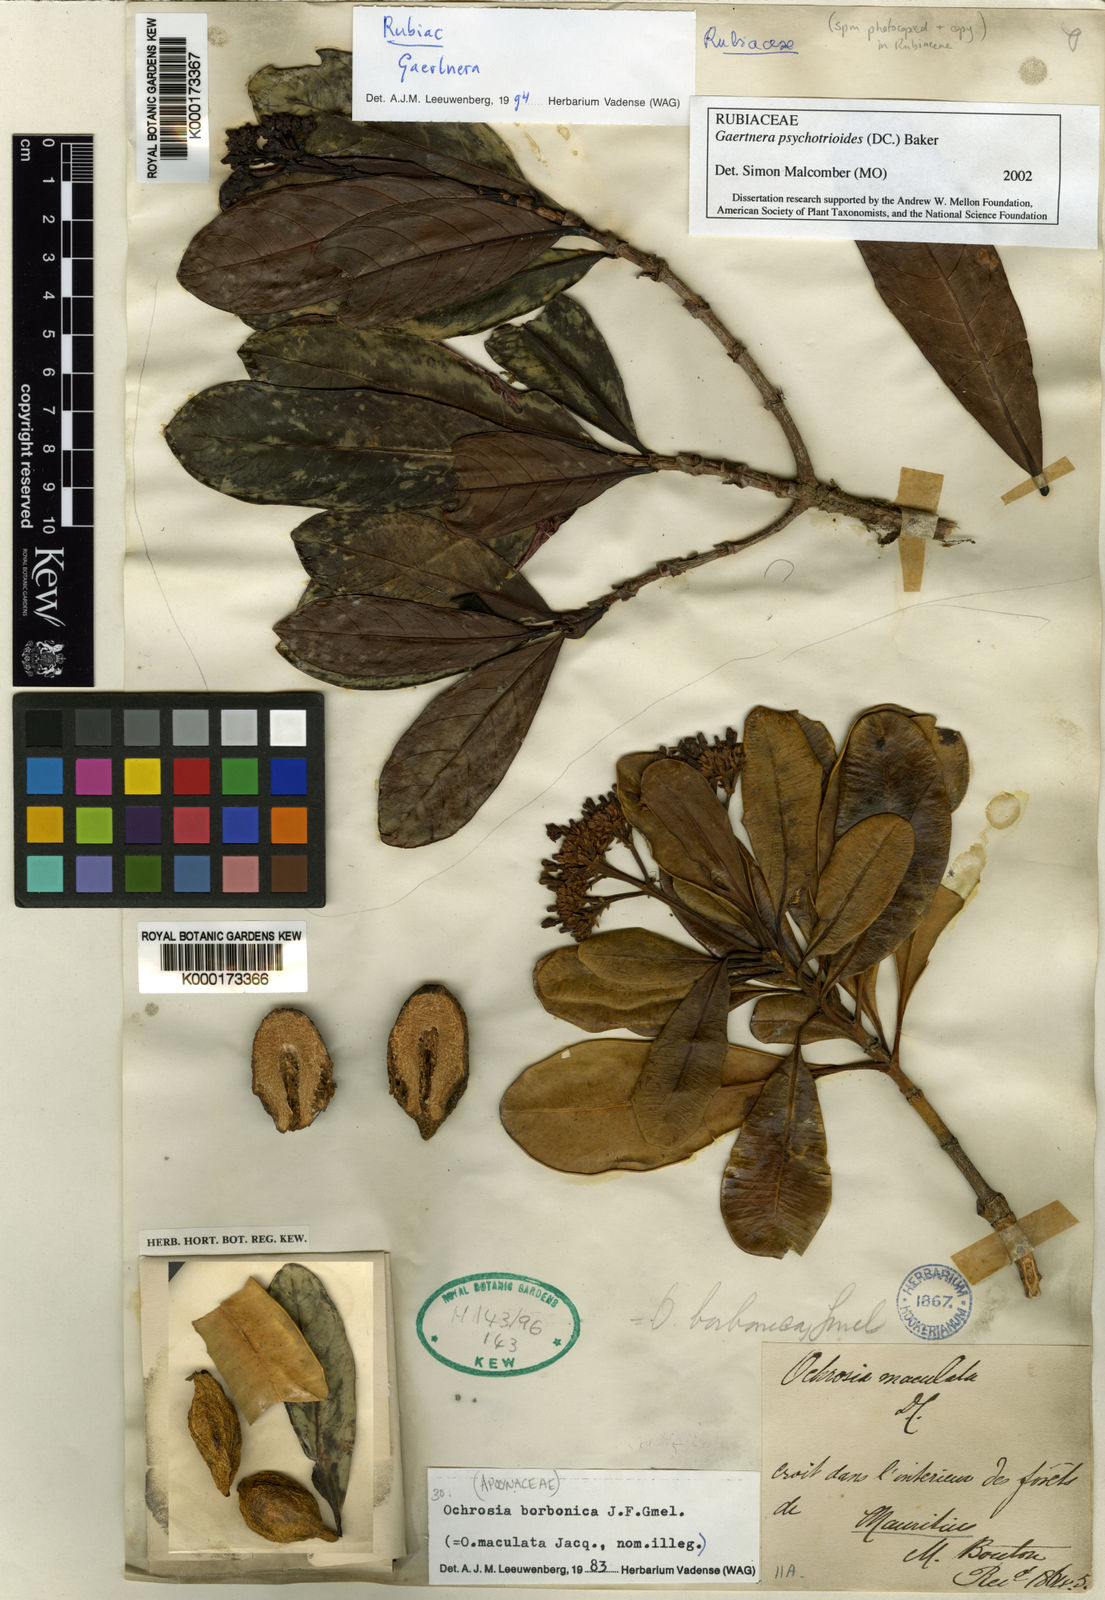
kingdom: Plantae
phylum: Tracheophyta
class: Magnoliopsida
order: Gentianales
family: Rubiaceae
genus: Gaertnera
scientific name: Gaertnera psychotrioides
